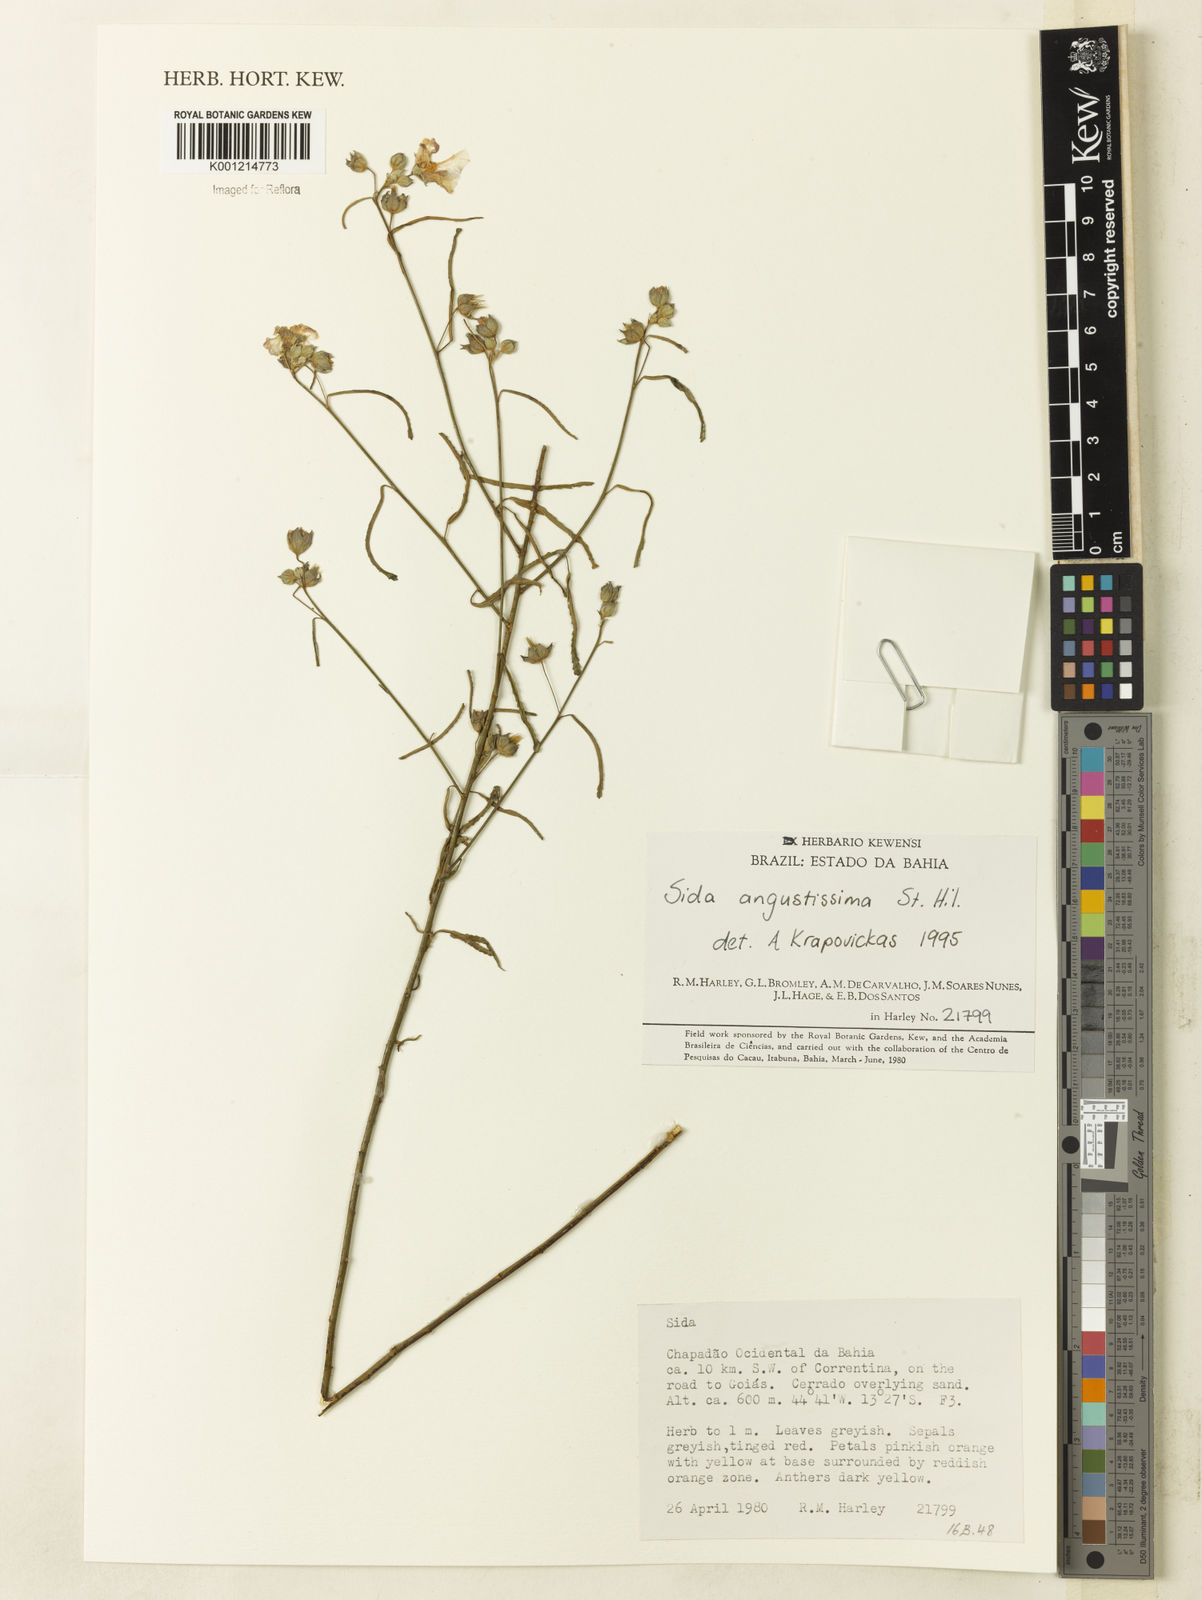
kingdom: Plantae
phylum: Tracheophyta
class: Magnoliopsida
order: Malvales
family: Malvaceae
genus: Sida
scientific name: Sida angustissima
